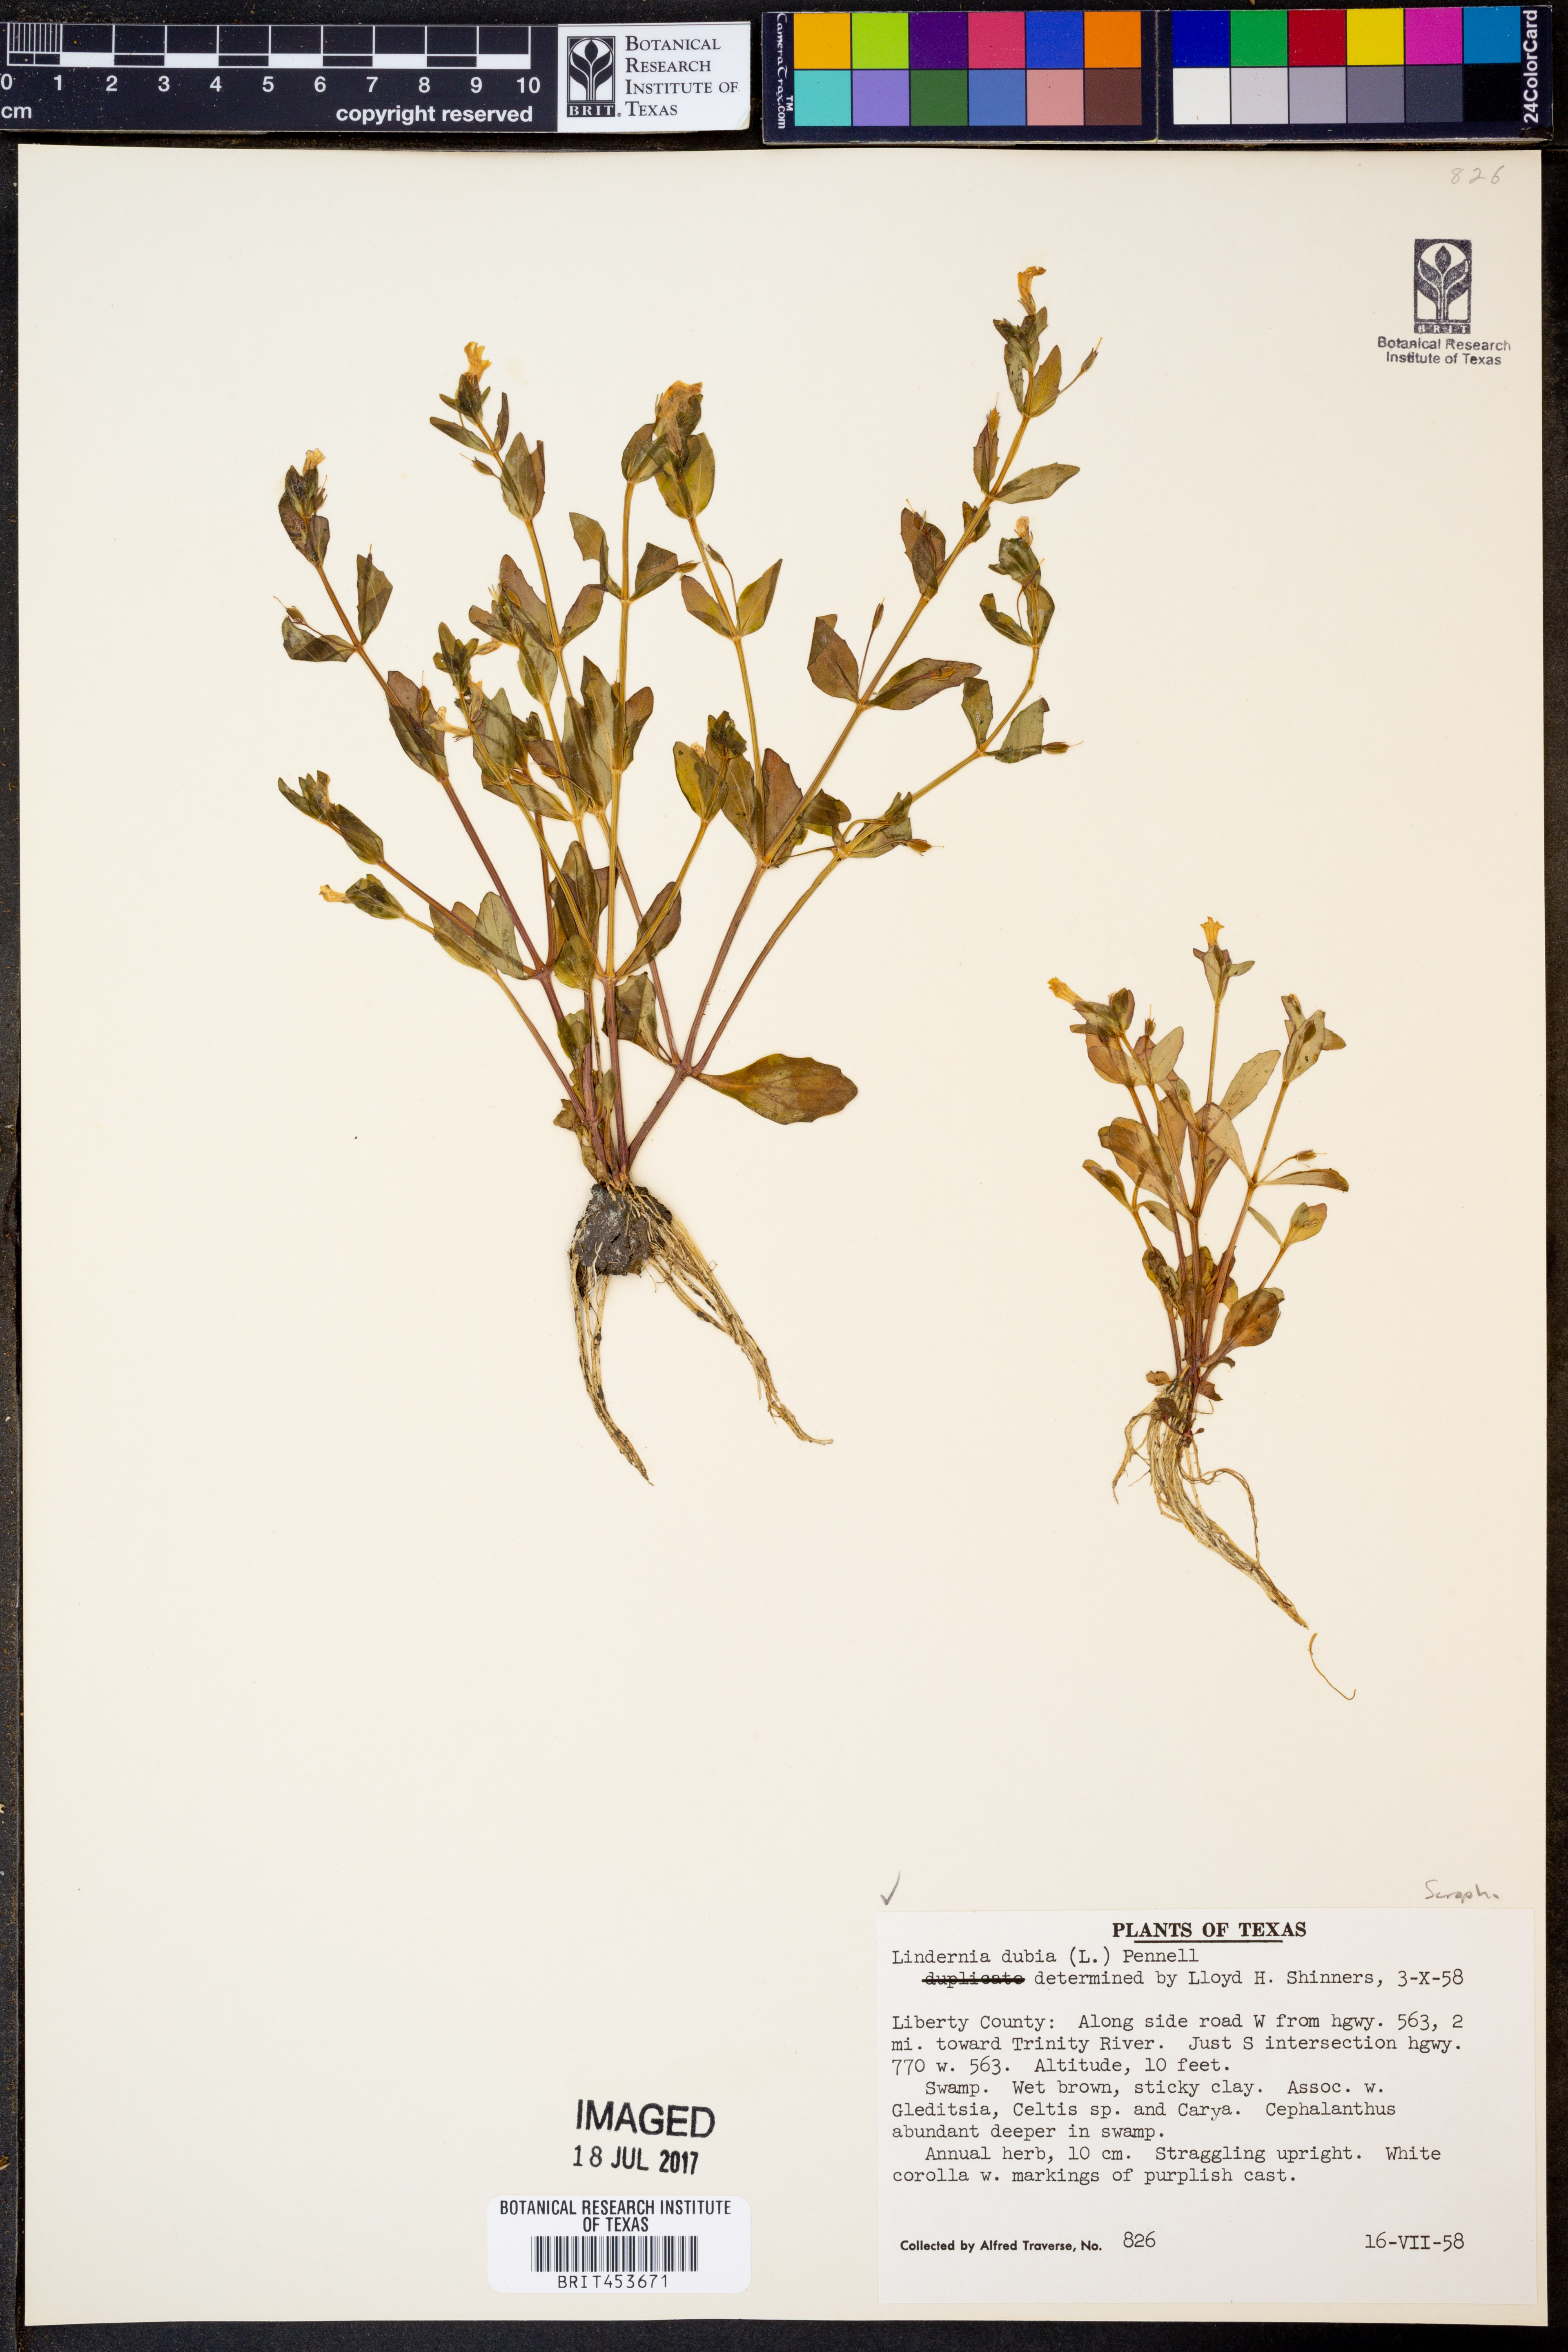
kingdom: Plantae
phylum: Tracheophyta
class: Magnoliopsida
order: Lamiales
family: Linderniaceae
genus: Lindernia
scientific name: Lindernia dubia
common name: Annual false pimpernel
